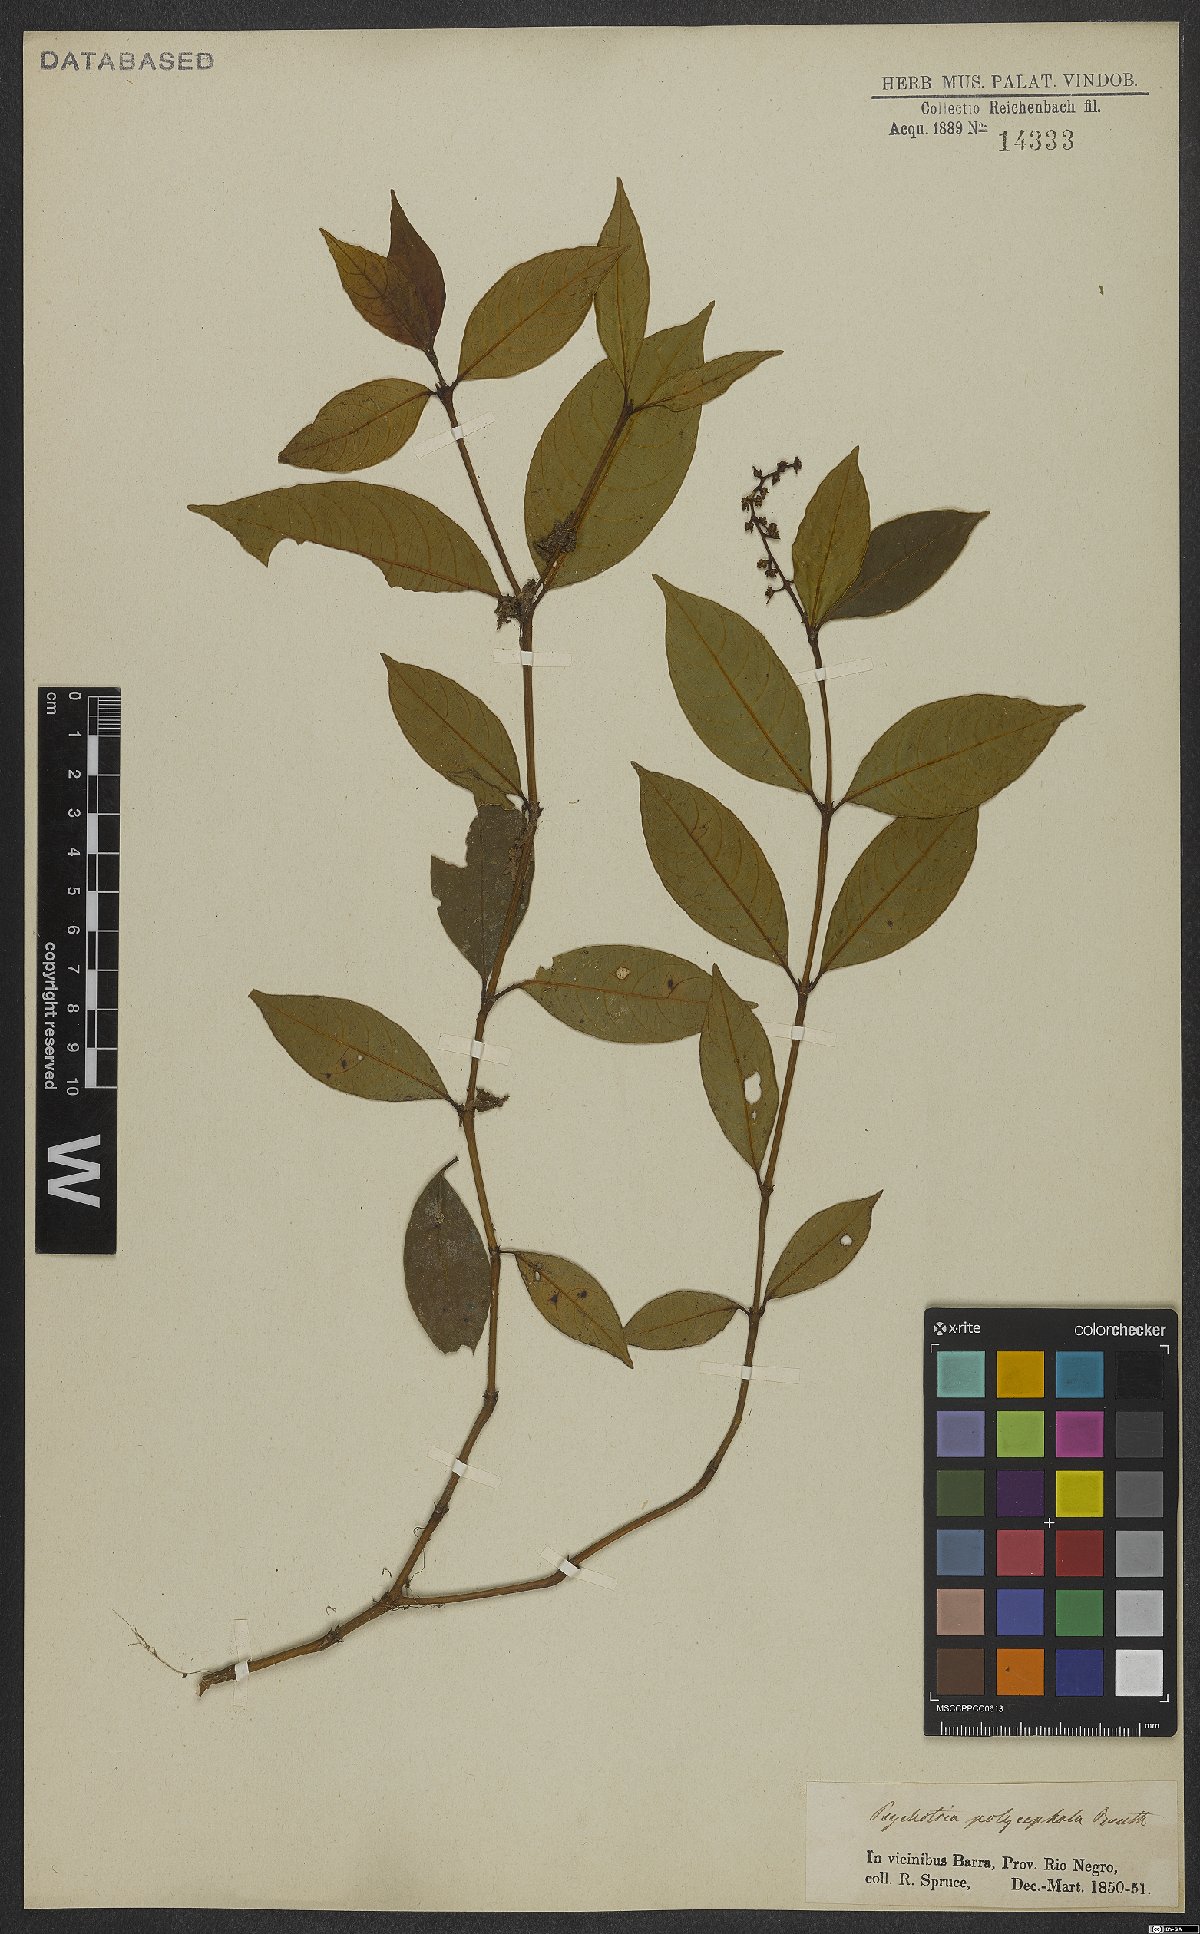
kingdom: Plantae
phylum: Tracheophyta
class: Magnoliopsida
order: Gentianales
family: Rubiaceae
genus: Palicourea
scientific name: Palicourea polycephala
